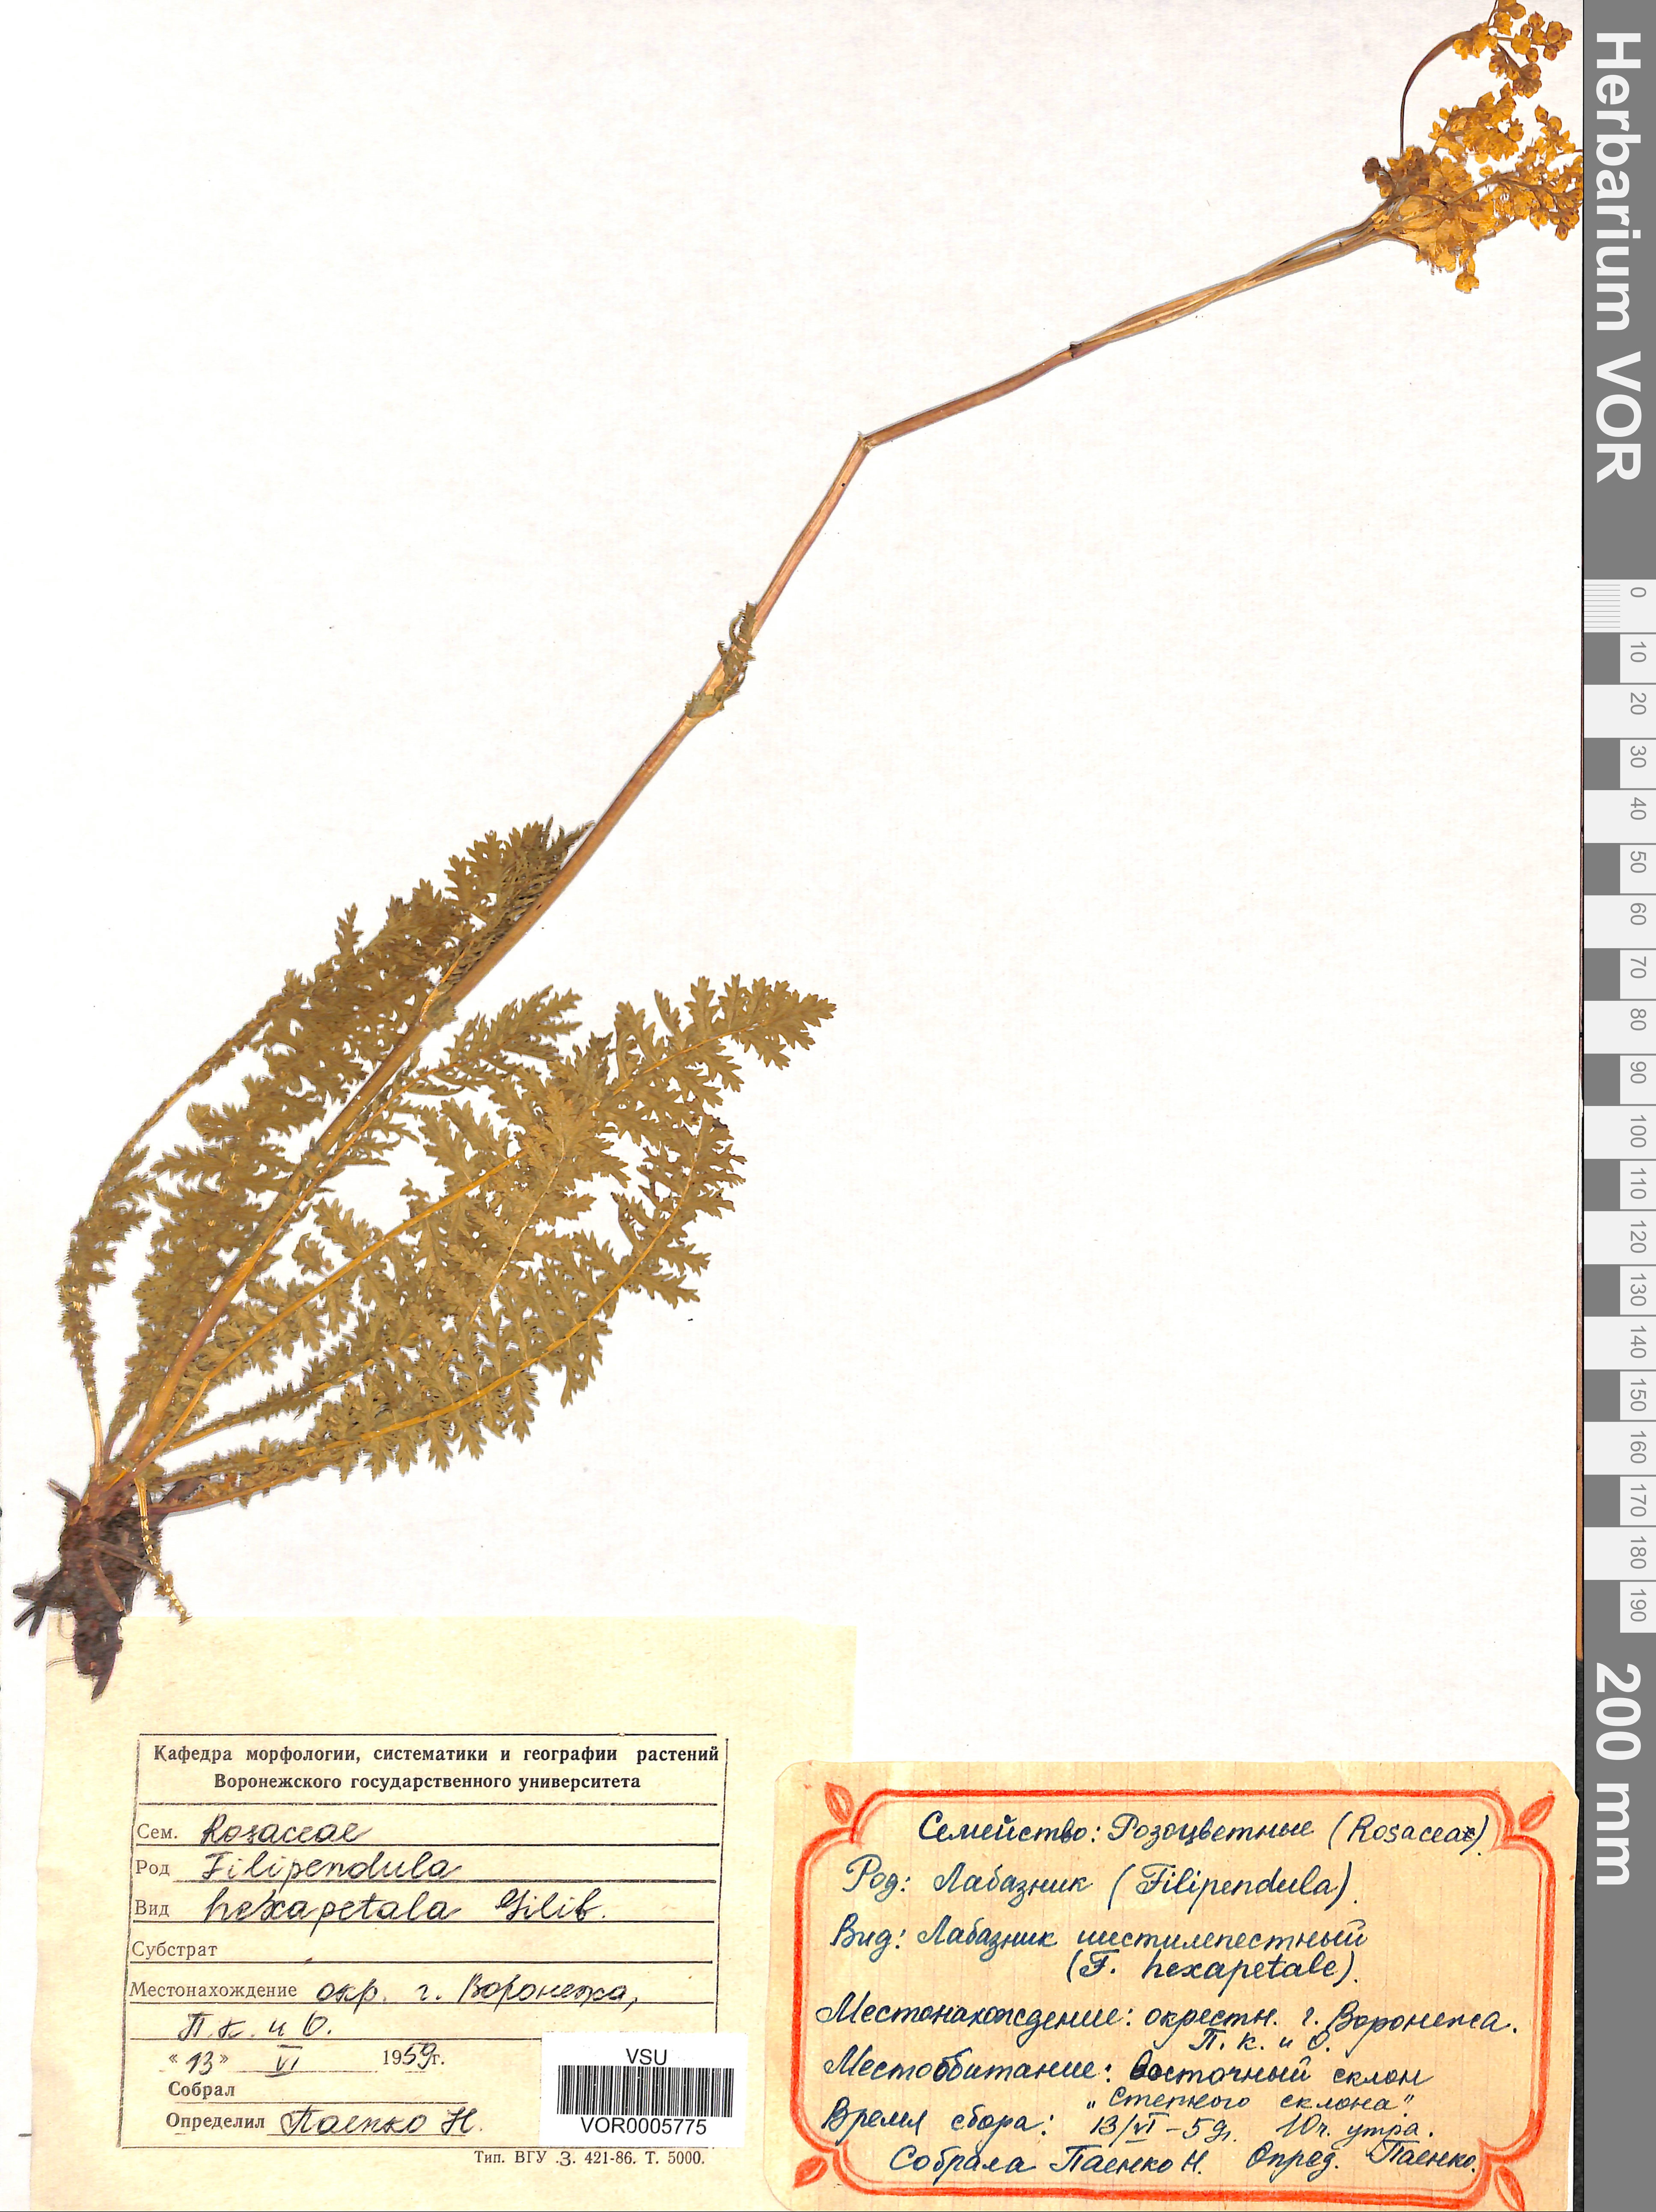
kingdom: Plantae
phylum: Tracheophyta
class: Magnoliopsida
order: Rosales
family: Rosaceae
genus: Filipendula
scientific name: Filipendula vulgaris
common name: Dropwort
